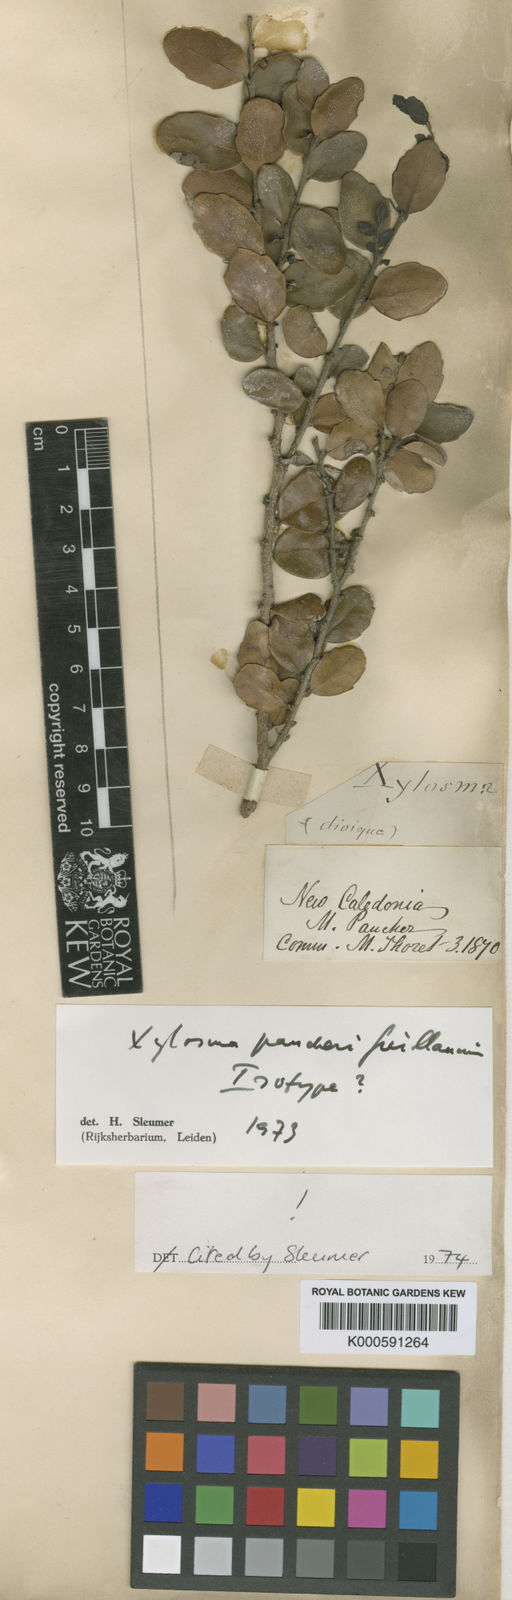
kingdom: Plantae
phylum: Tracheophyta
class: Magnoliopsida
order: Malpighiales
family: Salicaceae
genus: Xylosma
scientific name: Xylosma pancheri
